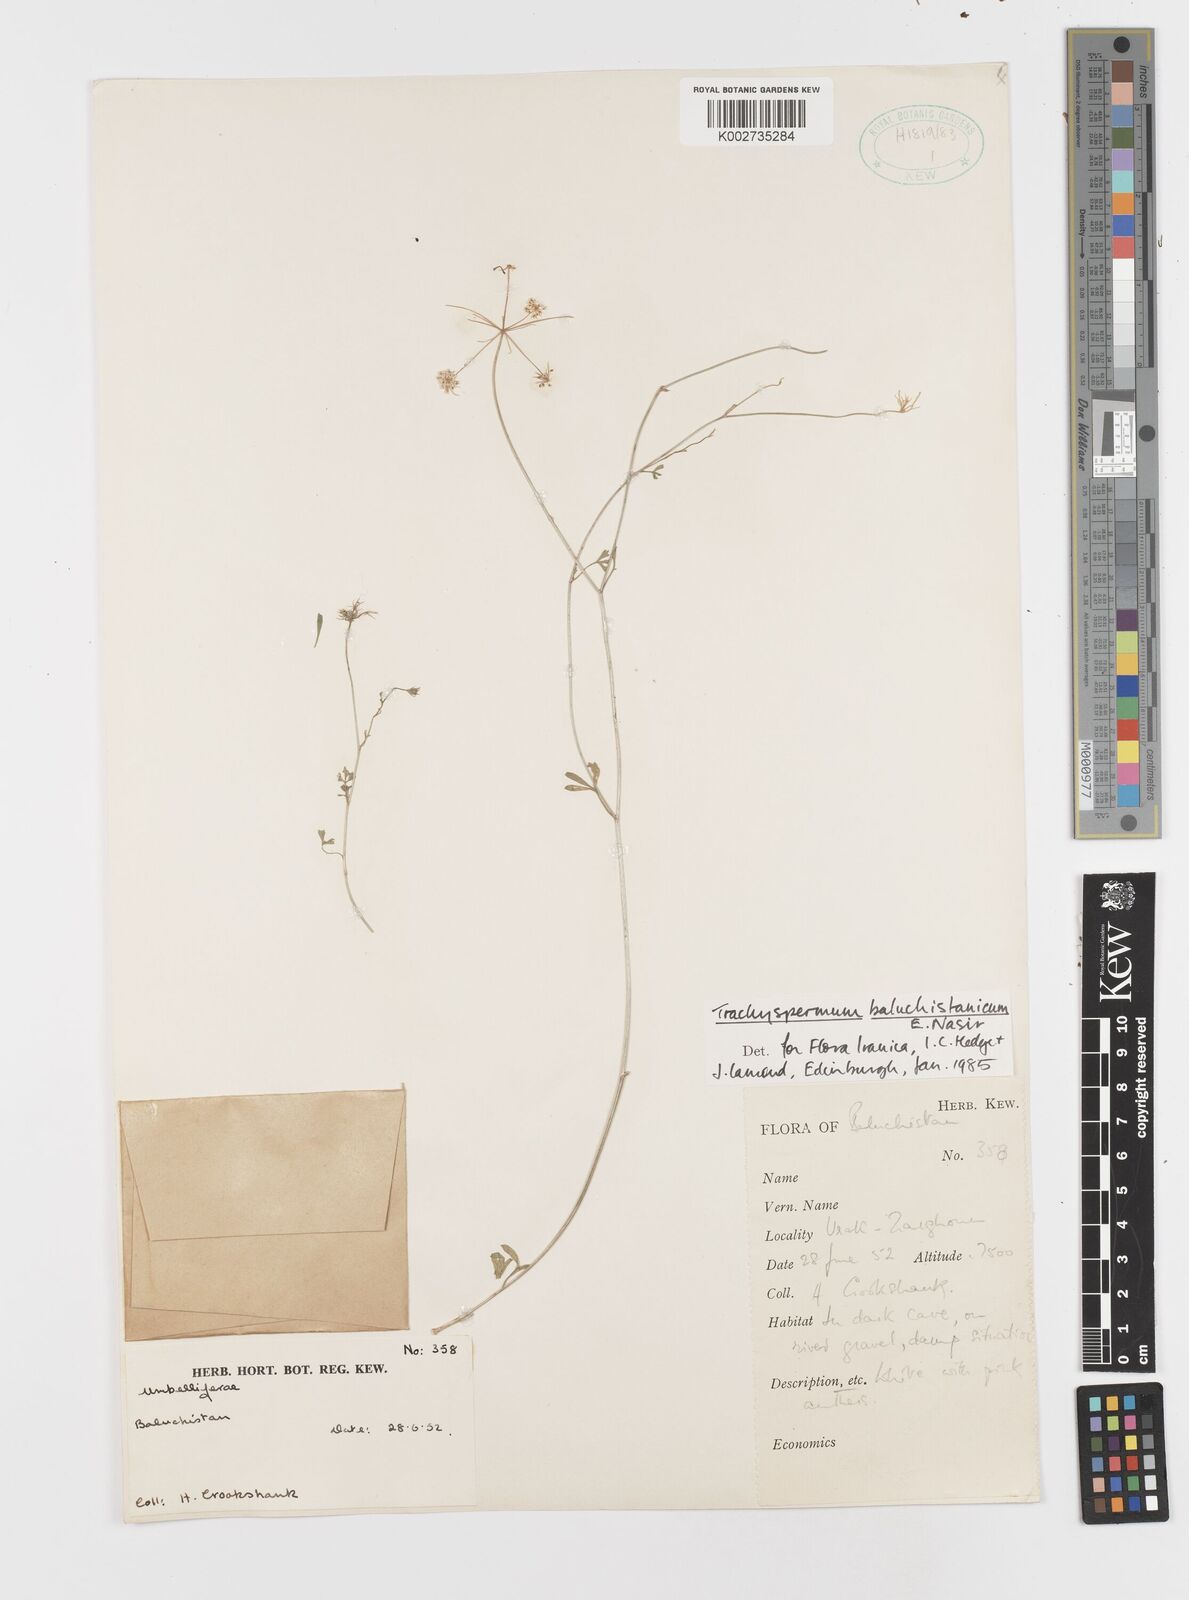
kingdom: Plantae
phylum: Tracheophyta
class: Magnoliopsida
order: Apiales
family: Apiaceae
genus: Trachyspermum
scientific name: Trachyspermum baluchistanicum
